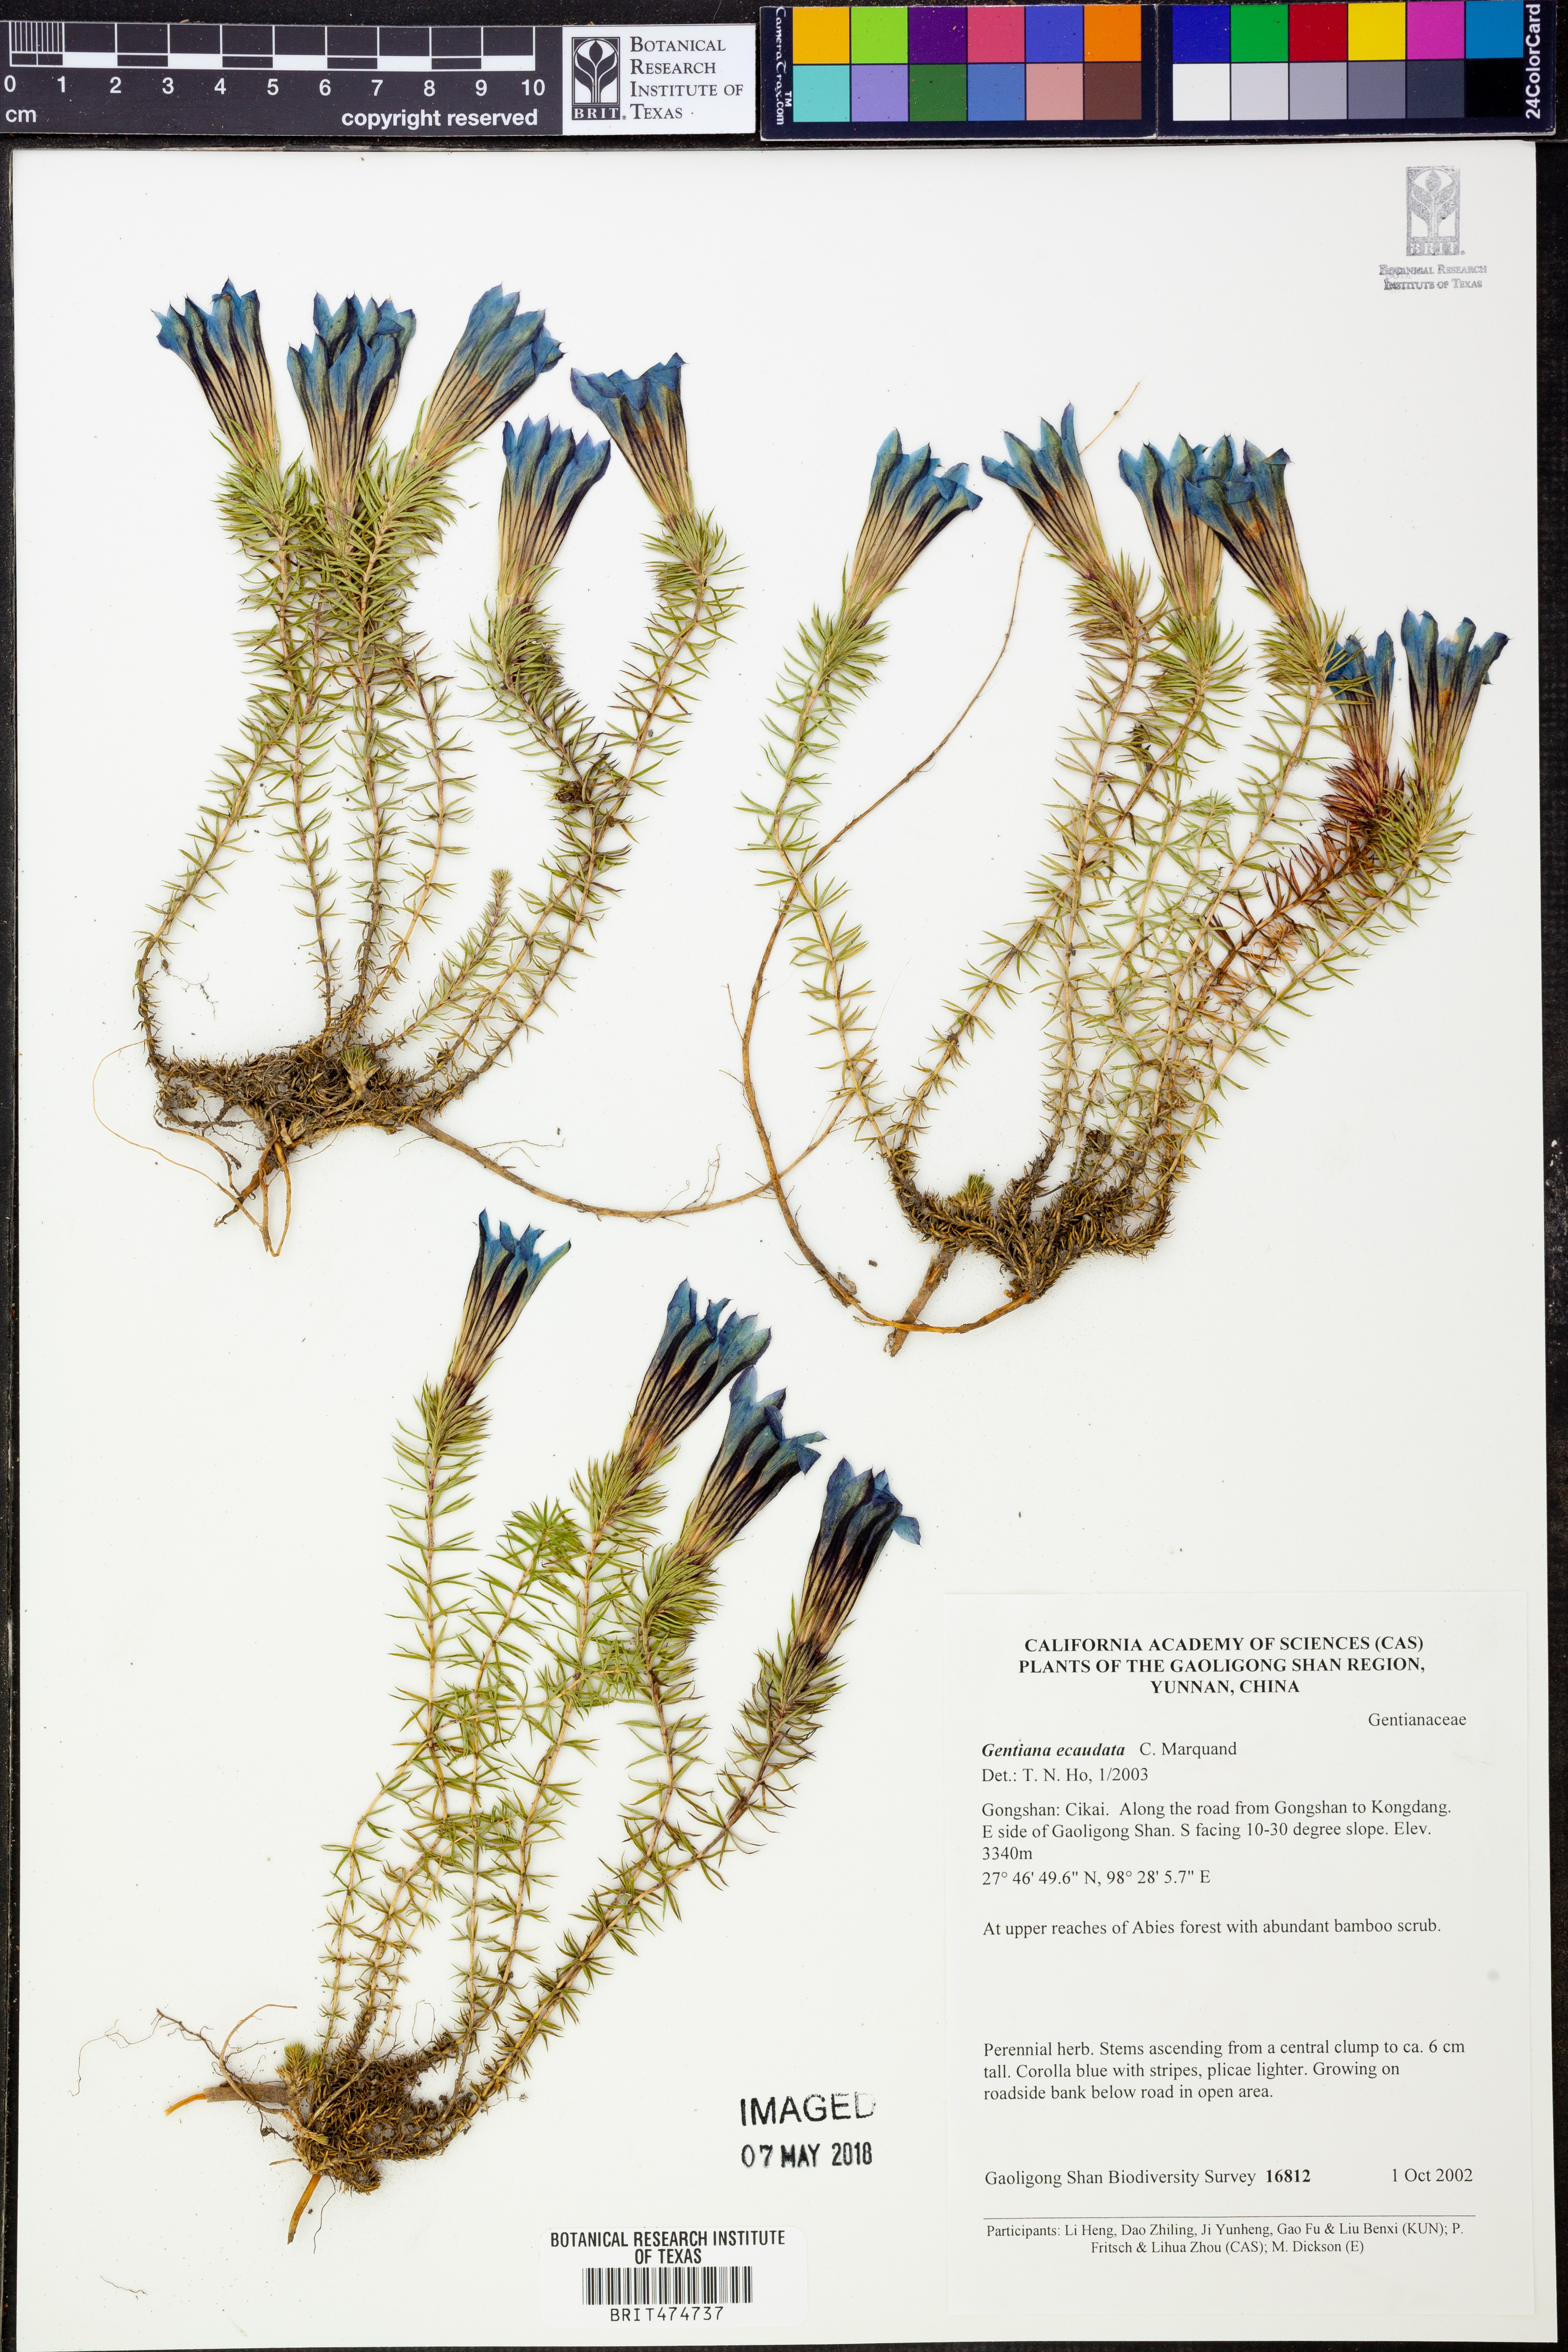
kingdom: Plantae
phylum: Tracheophyta
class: Magnoliopsida
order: Gentianales
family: Gentianaceae
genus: Gentiana
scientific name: Gentiana ecaudata
